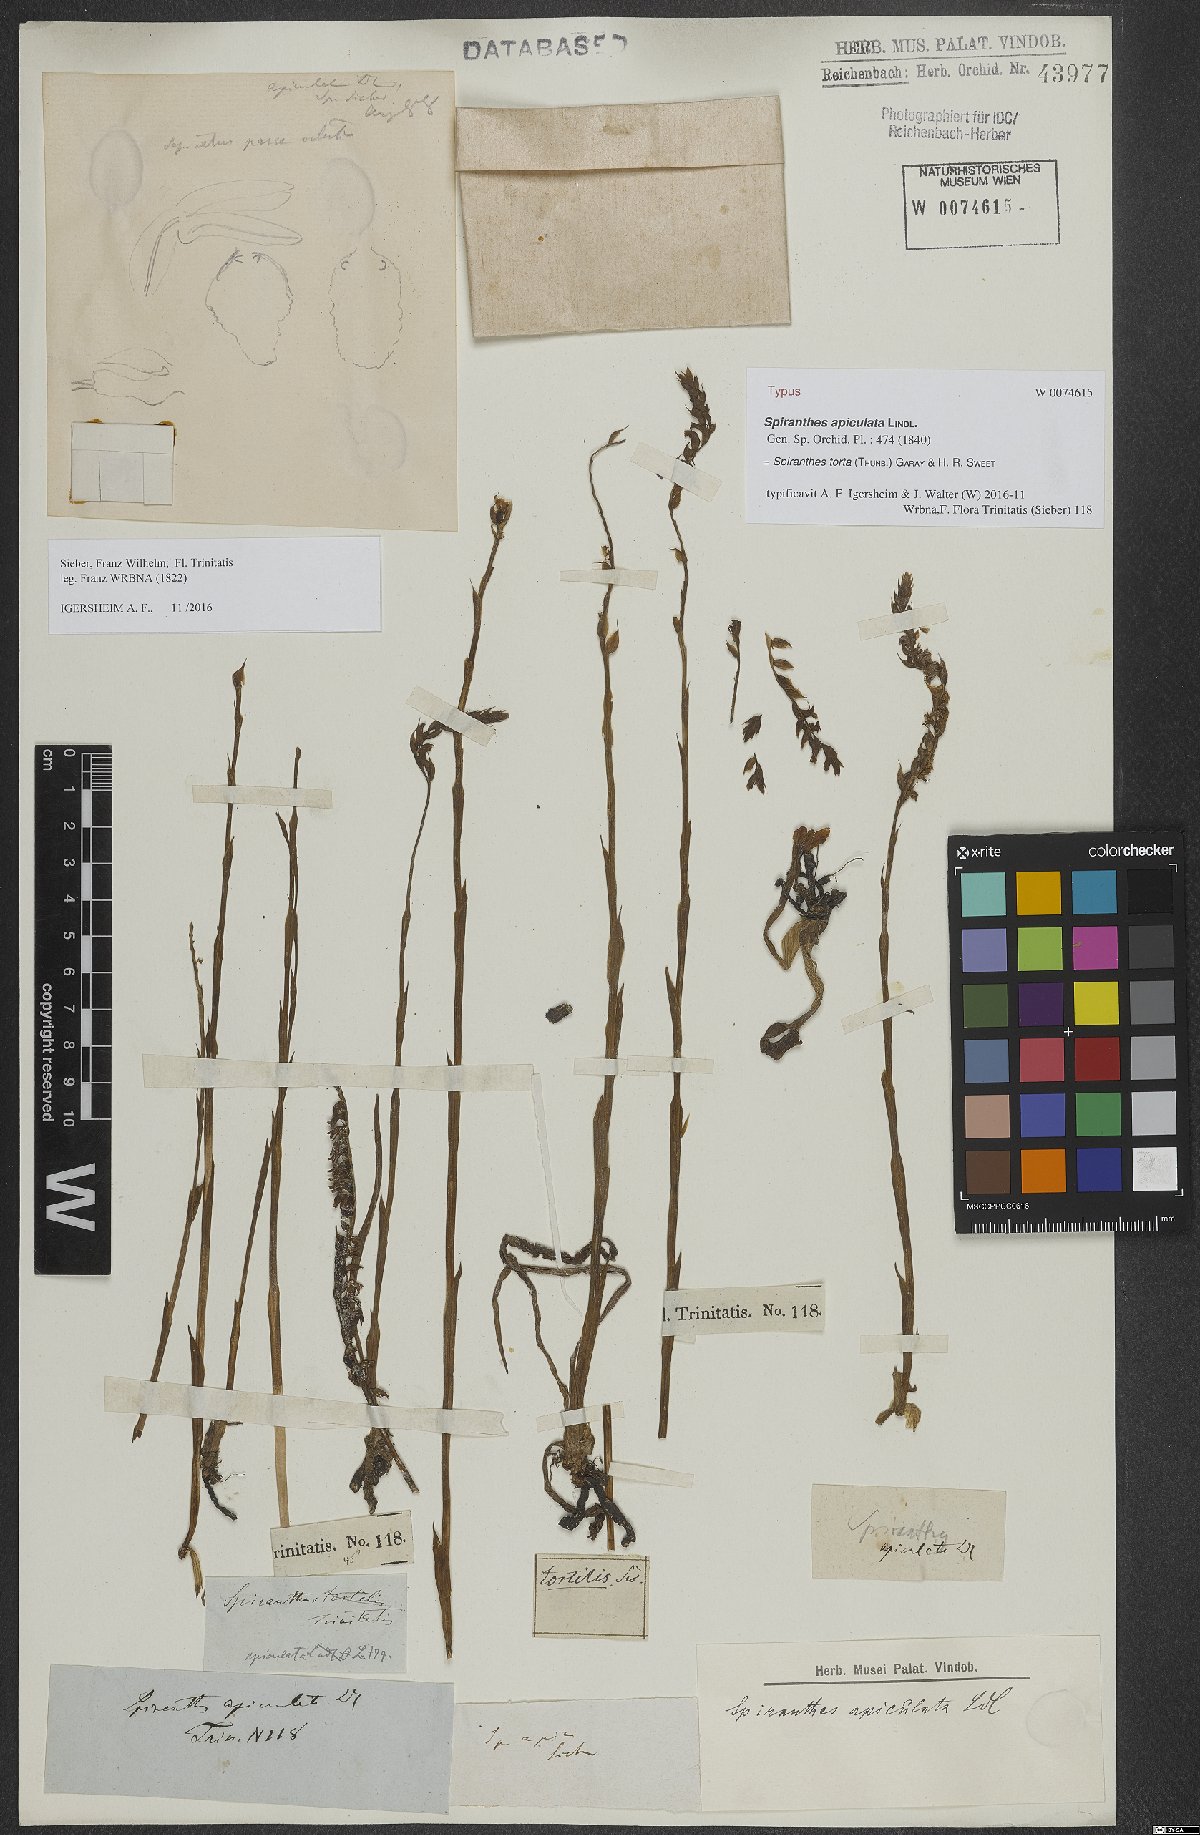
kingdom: Plantae
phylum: Tracheophyta
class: Liliopsida
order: Asparagales
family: Orchidaceae
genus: Spiranthes
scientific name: Spiranthes torta
